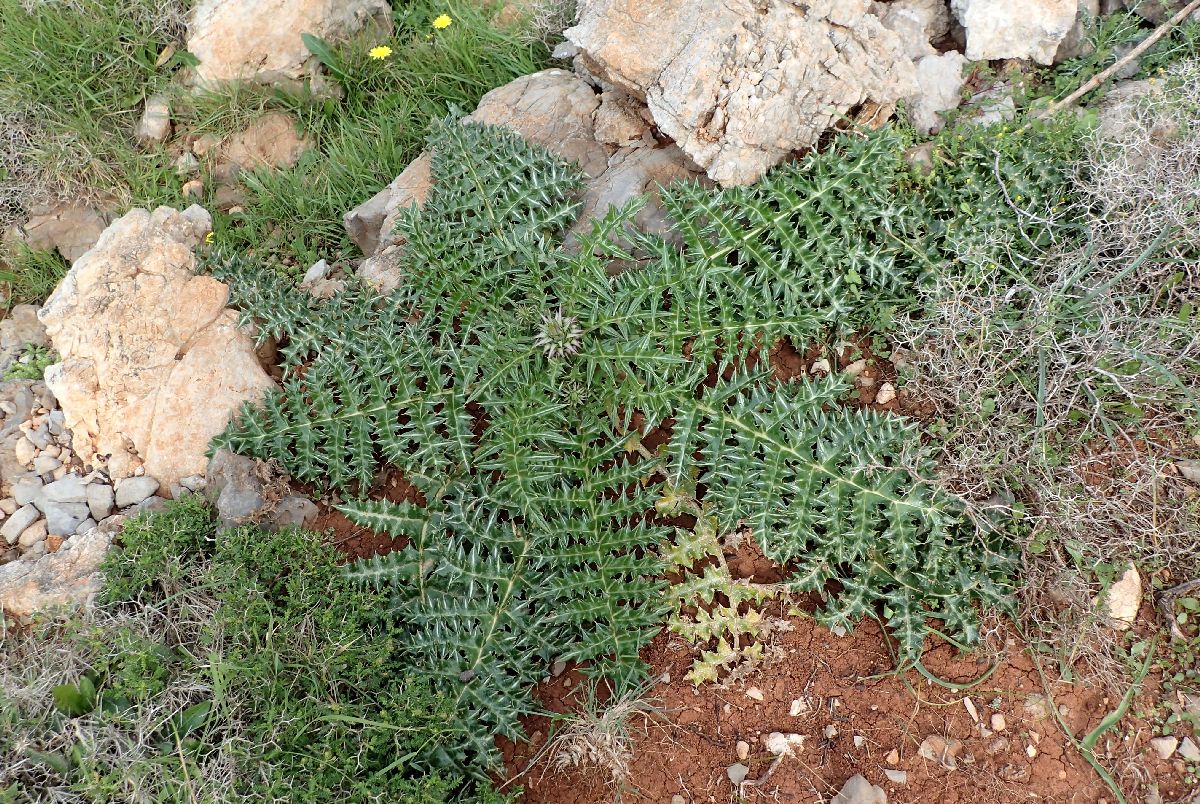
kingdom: Plantae
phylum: Tracheophyta
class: Magnoliopsida
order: Asterales
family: Asteraceae
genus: Cynara
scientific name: Cynara cornigera
